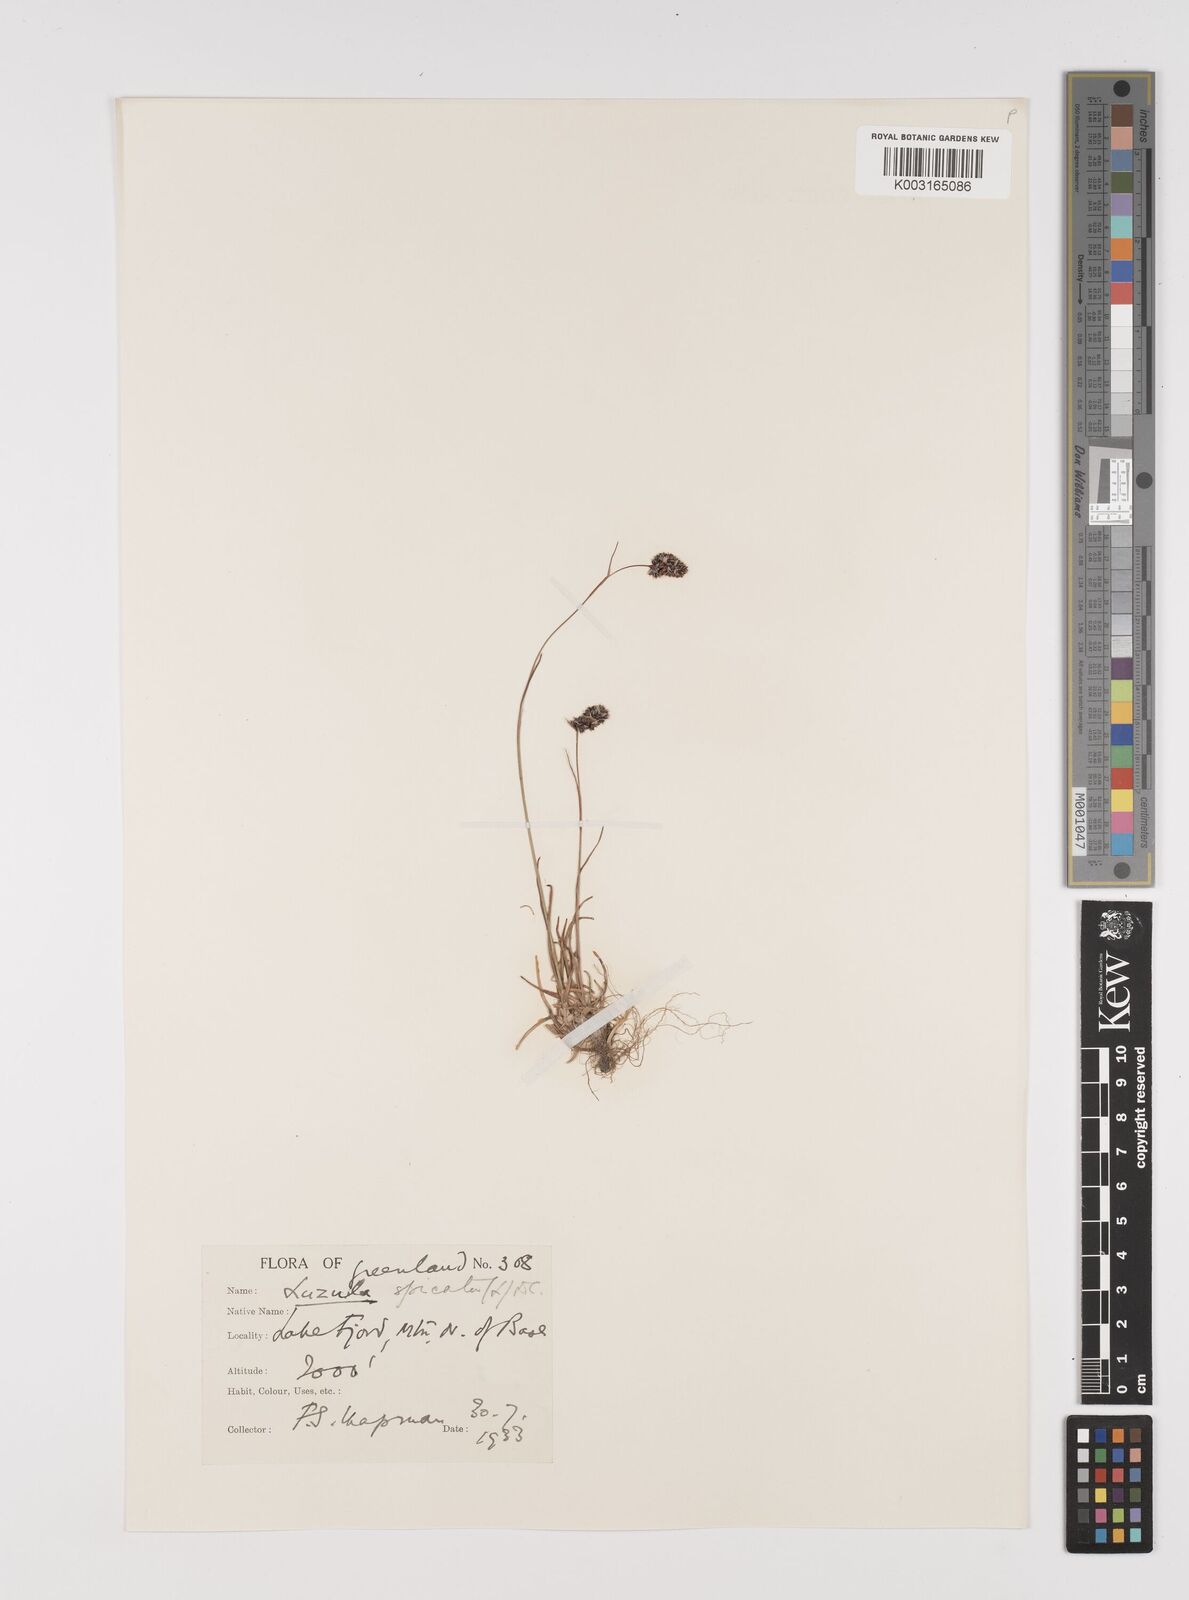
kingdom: Plantae
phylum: Tracheophyta
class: Liliopsida
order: Poales
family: Juncaceae
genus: Luzula
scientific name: Luzula spicata
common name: Spiked wood-rush
